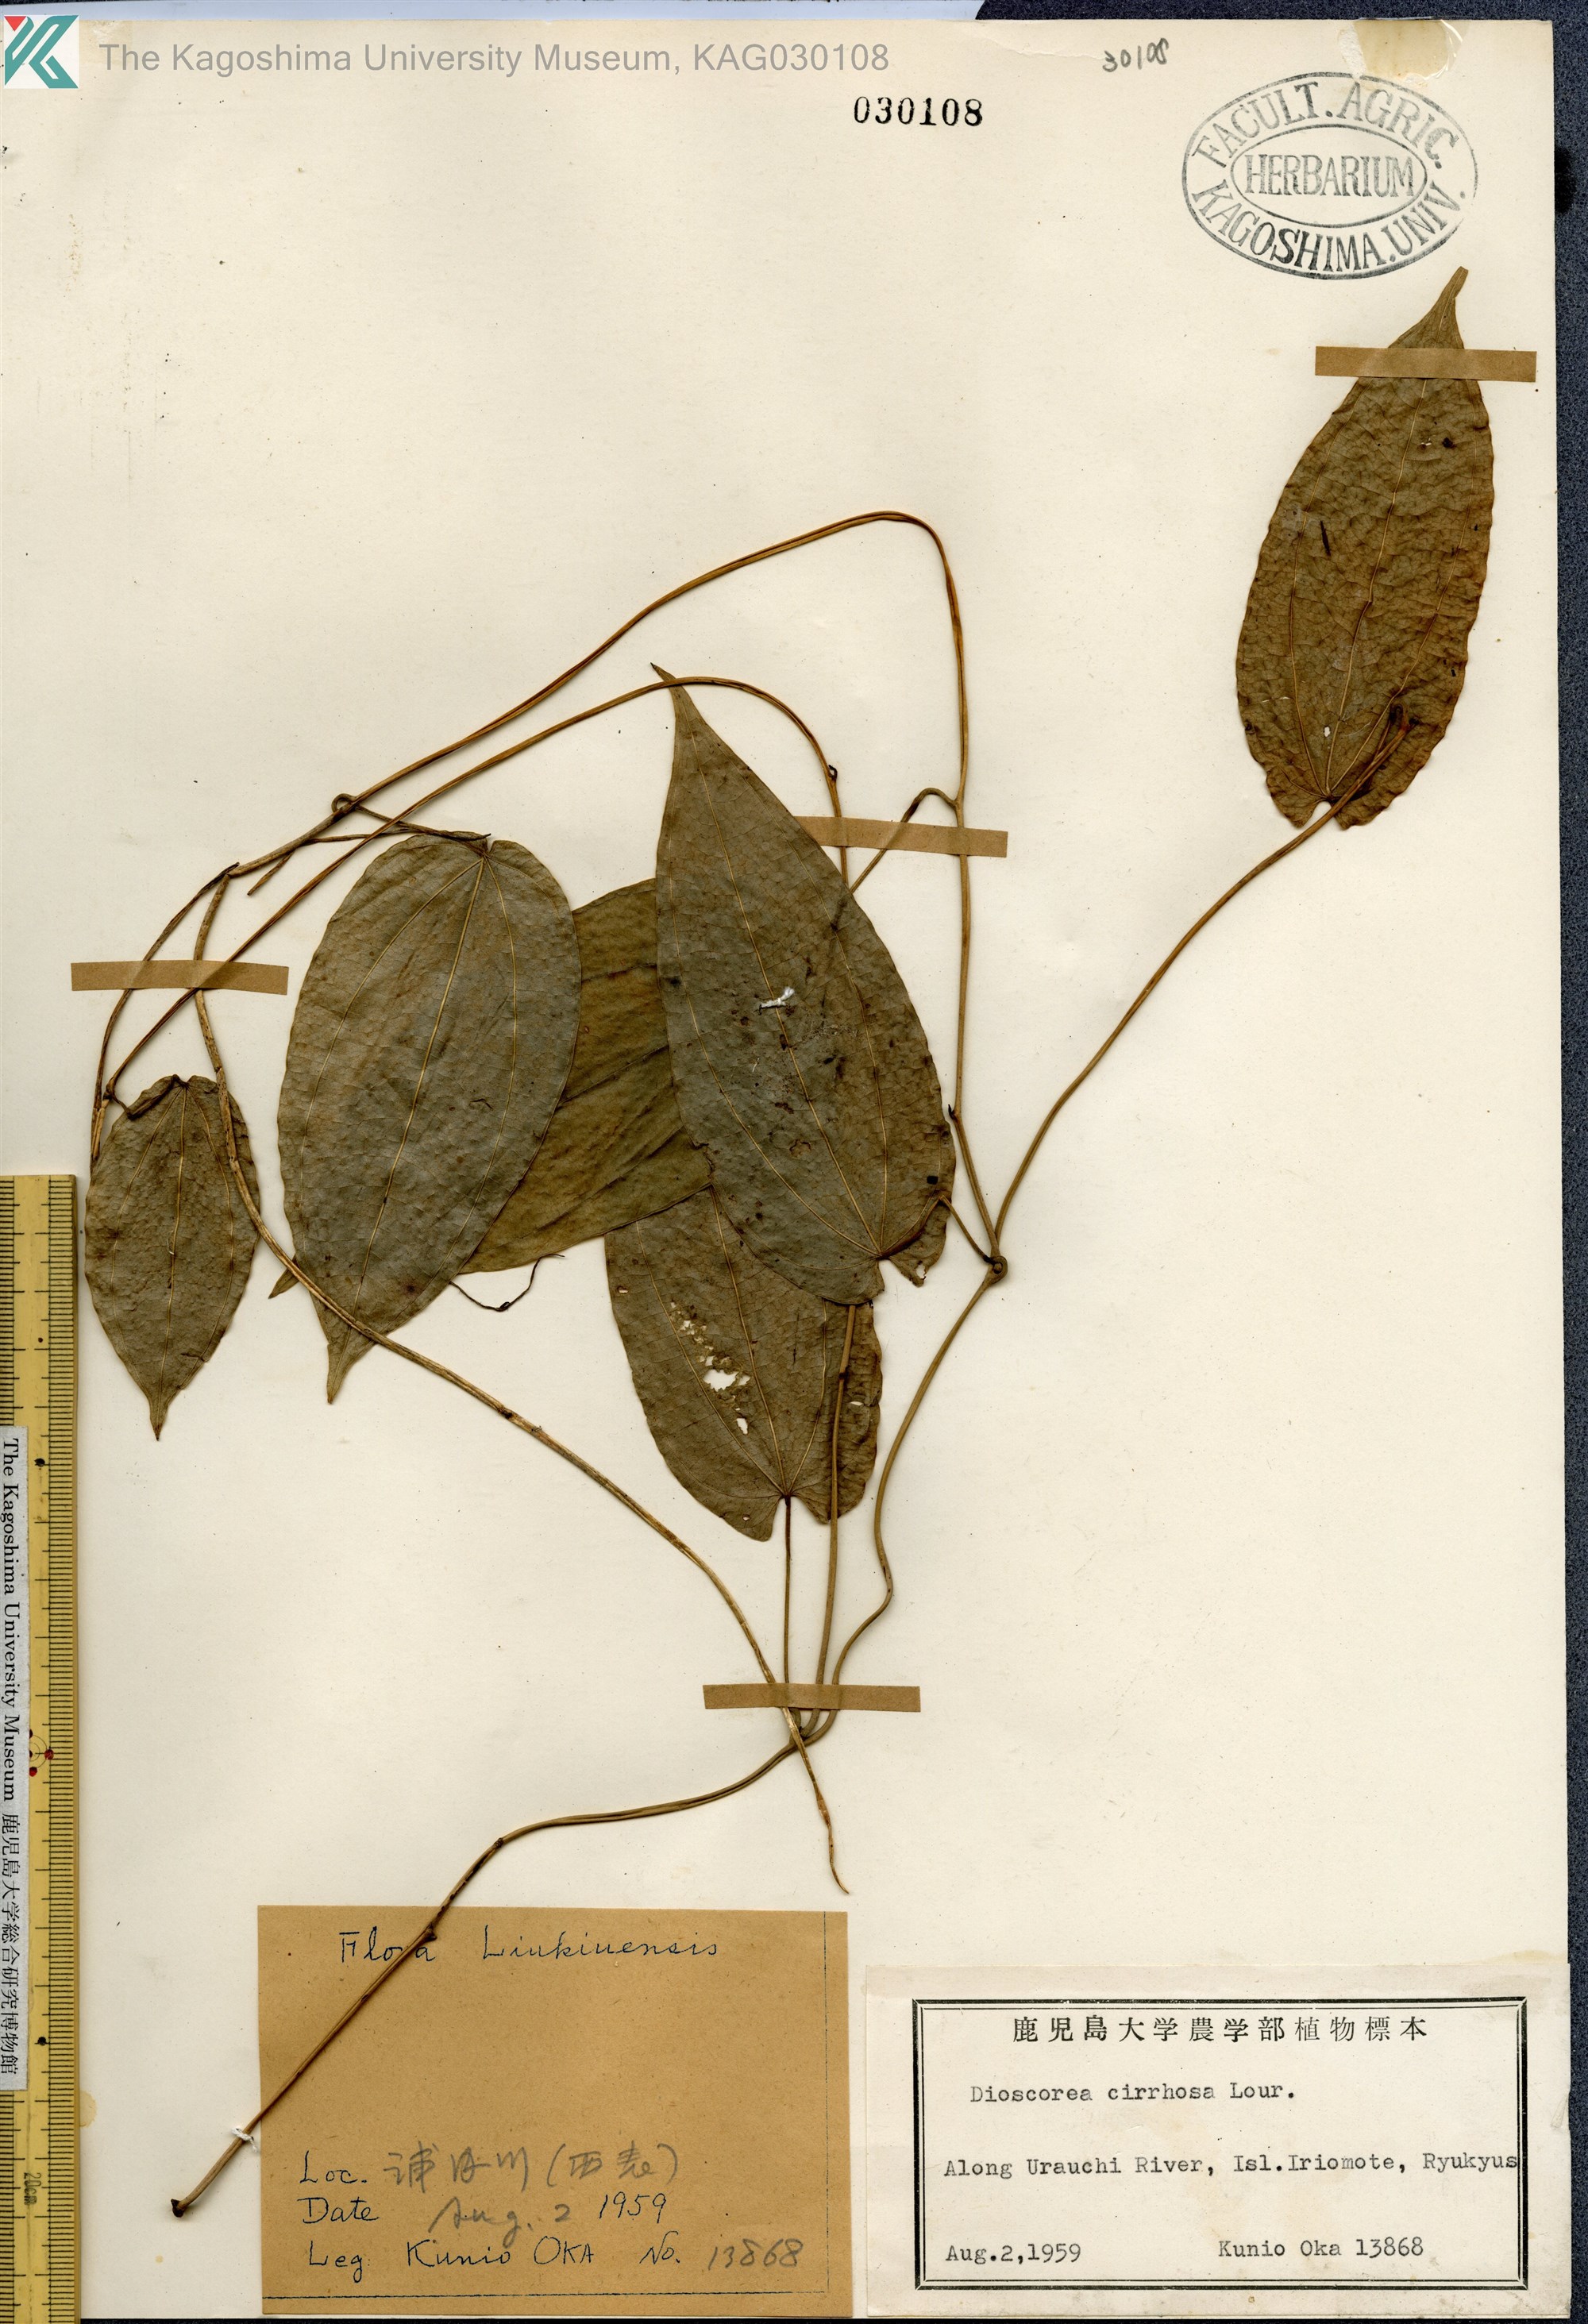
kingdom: Plantae
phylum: Tracheophyta
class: Liliopsida
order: Dioscoreales
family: Dioscoreaceae
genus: Dioscorea
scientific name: Dioscorea cirrhosa
